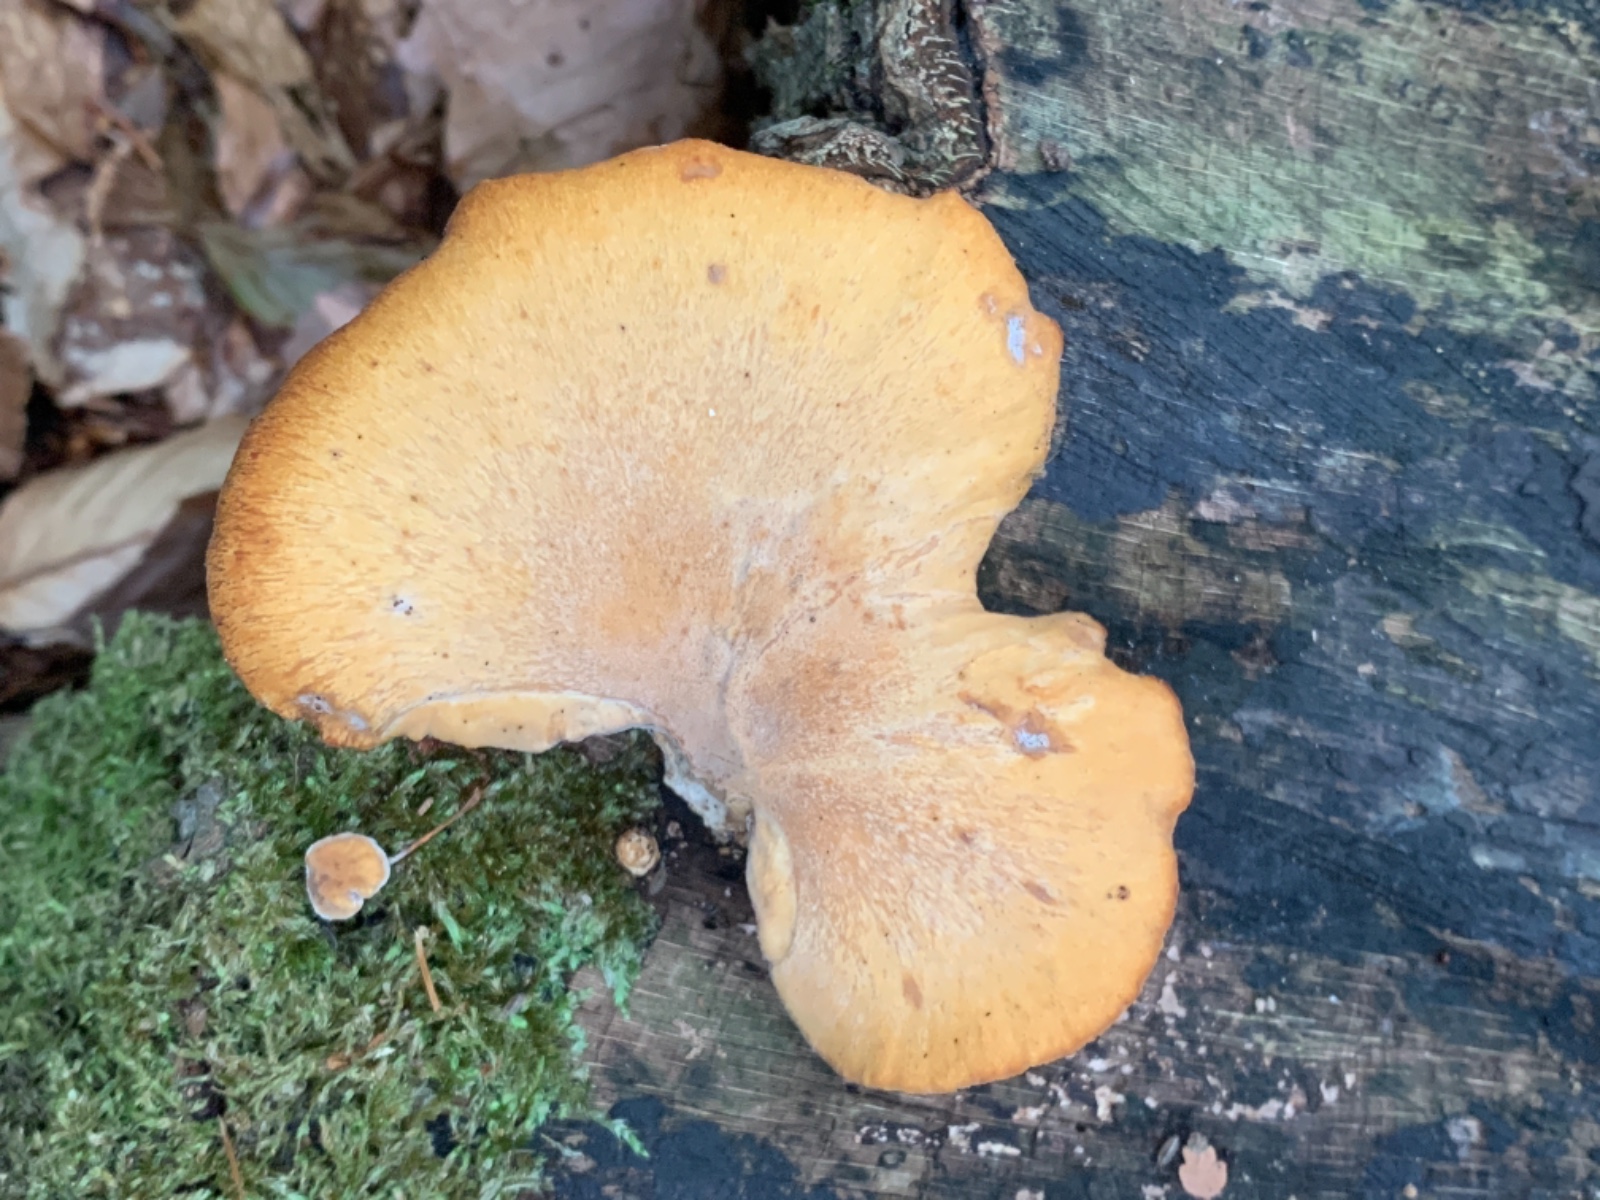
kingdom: Fungi
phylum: Basidiomycota
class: Agaricomycetes
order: Polyporales
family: Polyporaceae
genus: Cerioporus
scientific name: Cerioporus varius
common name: foranderlig stilkporesvamp
